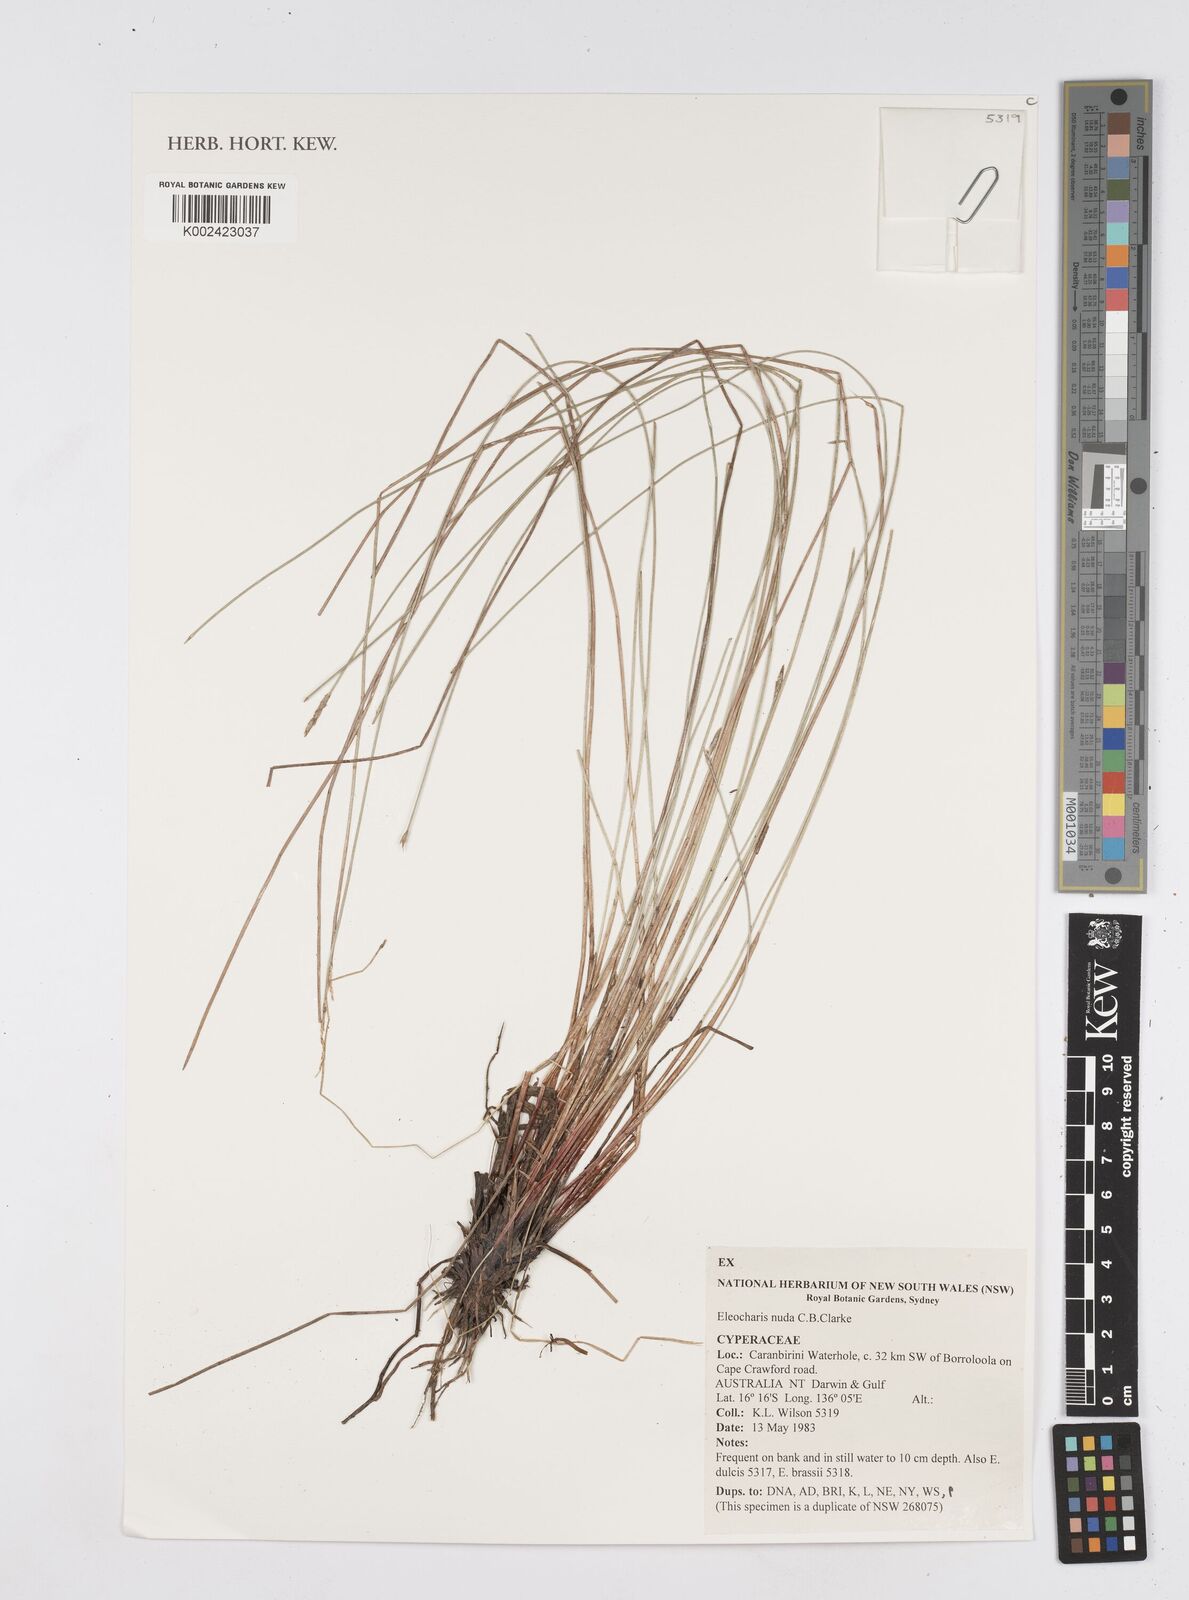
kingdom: Plantae
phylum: Tracheophyta
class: Liliopsida
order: Poales
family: Cyperaceae
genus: Eleocharis
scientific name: Eleocharis nuda
